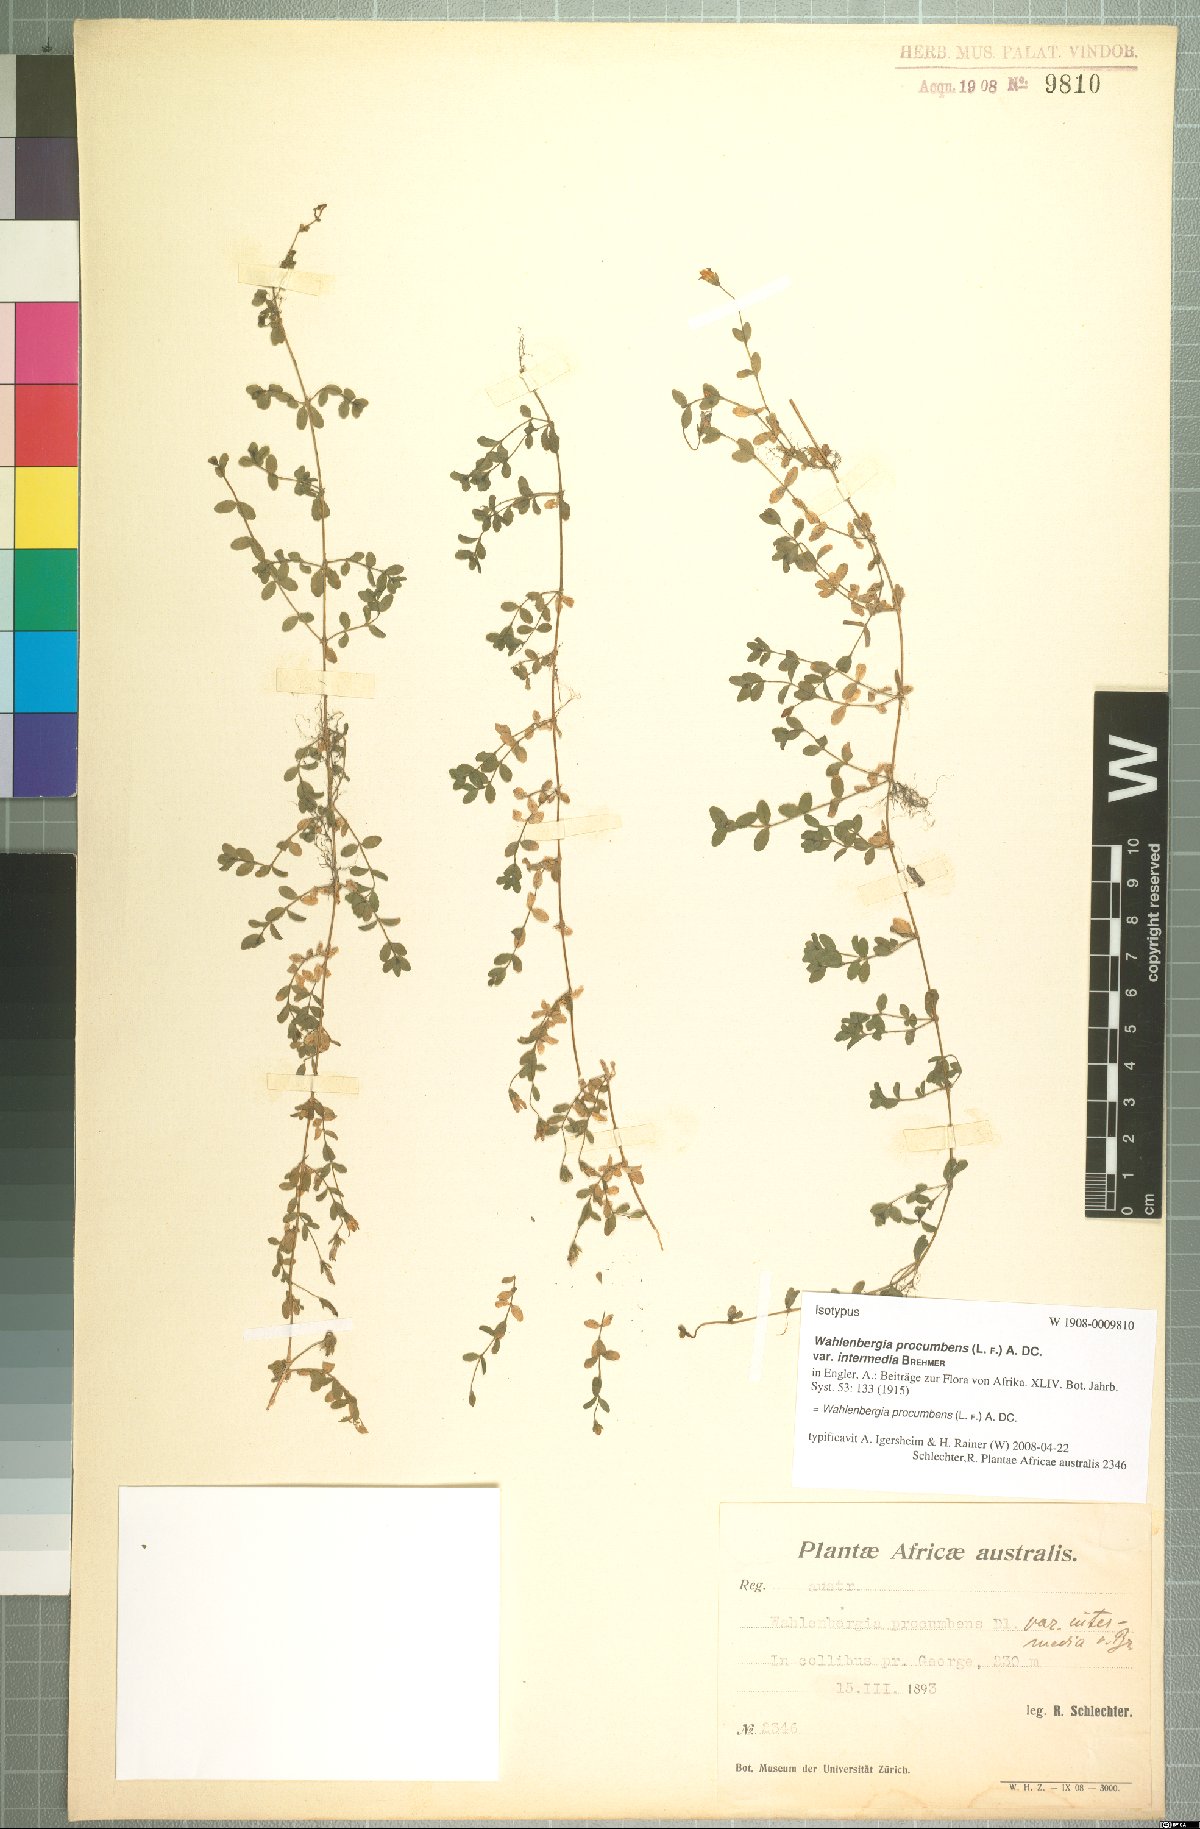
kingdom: Plantae
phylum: Tracheophyta
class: Magnoliopsida
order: Asterales
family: Campanulaceae
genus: Wahlenbergia
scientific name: Wahlenbergia procumbens
